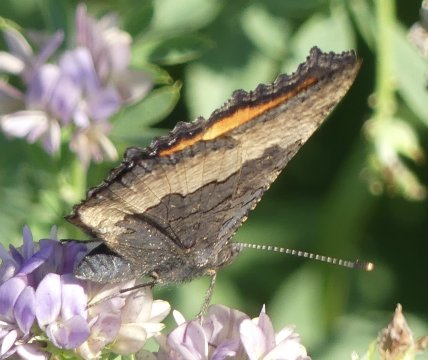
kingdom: Animalia
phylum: Arthropoda
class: Insecta
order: Lepidoptera
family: Nymphalidae
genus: Aglais
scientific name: Aglais milberti
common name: Milbert's Tortoiseshell
